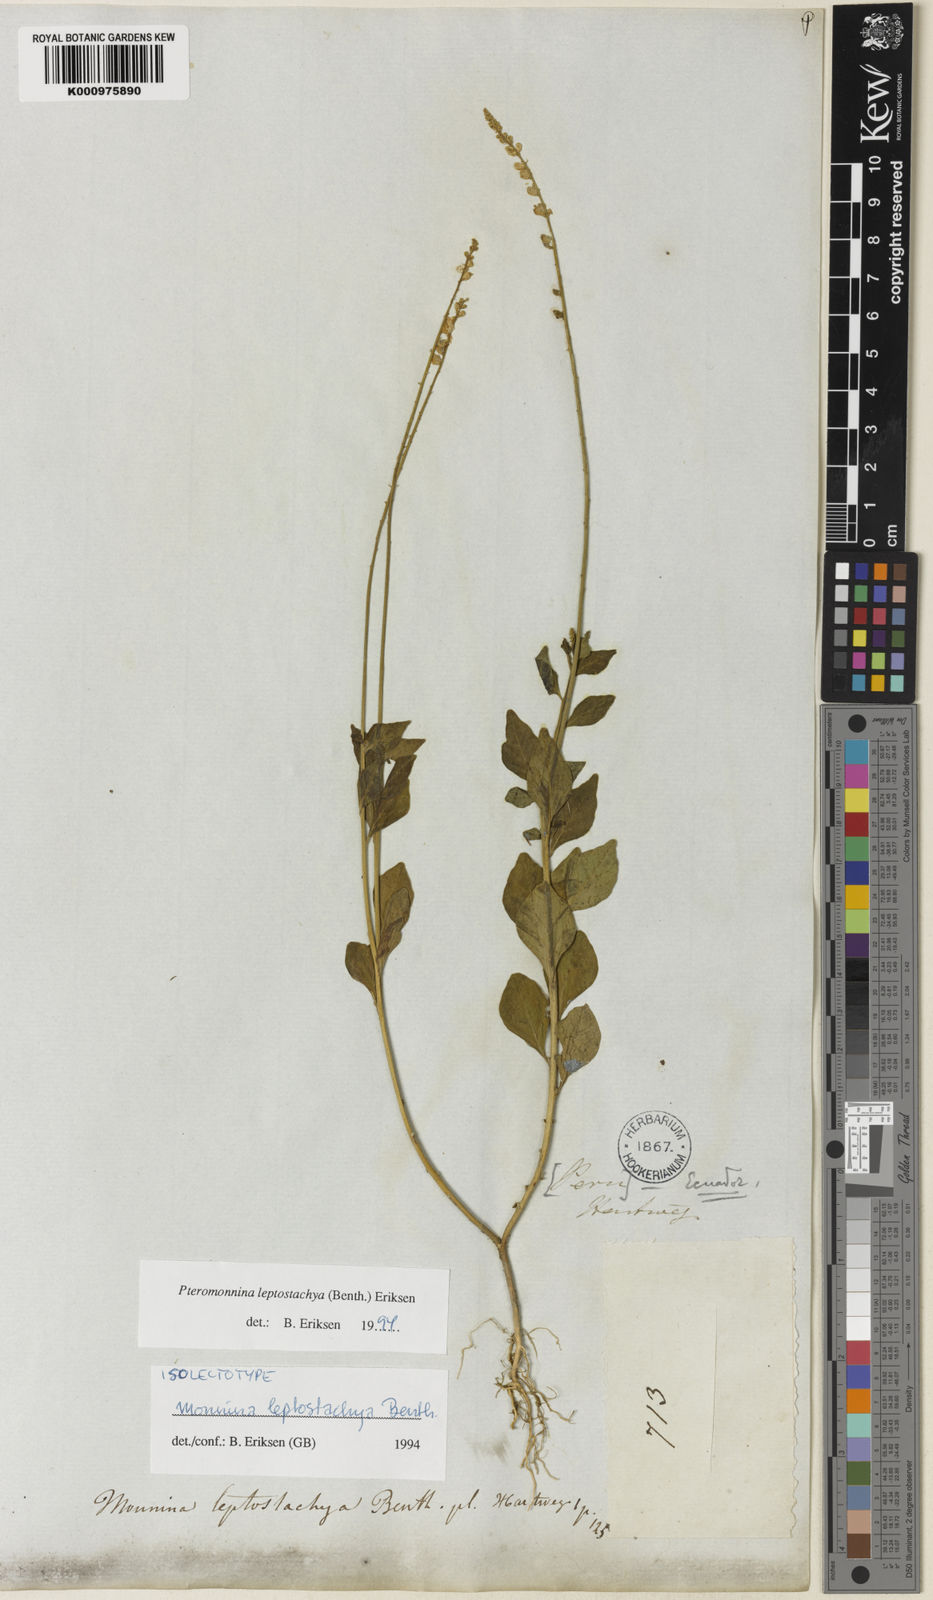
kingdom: Plantae
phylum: Tracheophyta
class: Magnoliopsida
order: Fabales
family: Polygalaceae
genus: Monnina
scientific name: Monnina leptostachya
